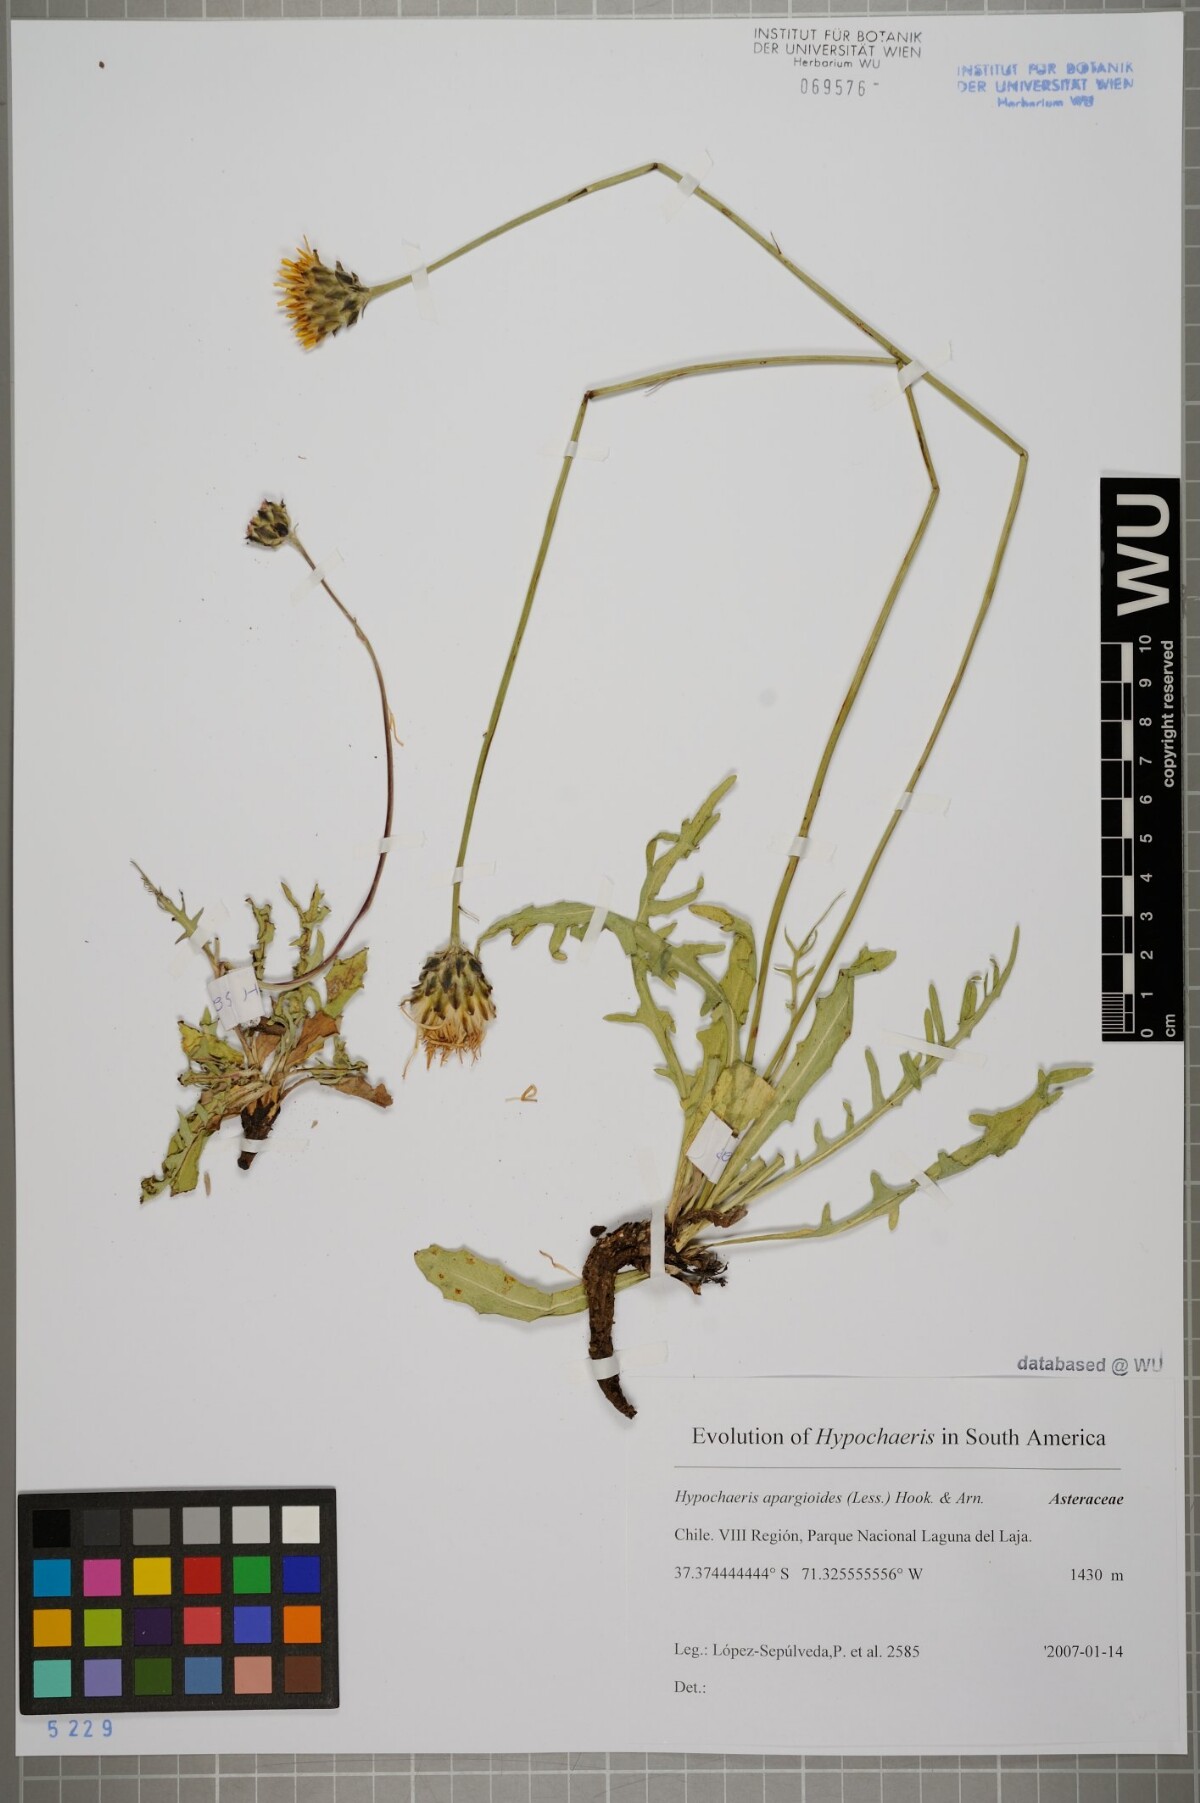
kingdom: Plantae
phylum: Tracheophyta
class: Magnoliopsida
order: Asterales
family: Asteraceae
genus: Hypochaeris
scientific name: Hypochaeris apargioides
